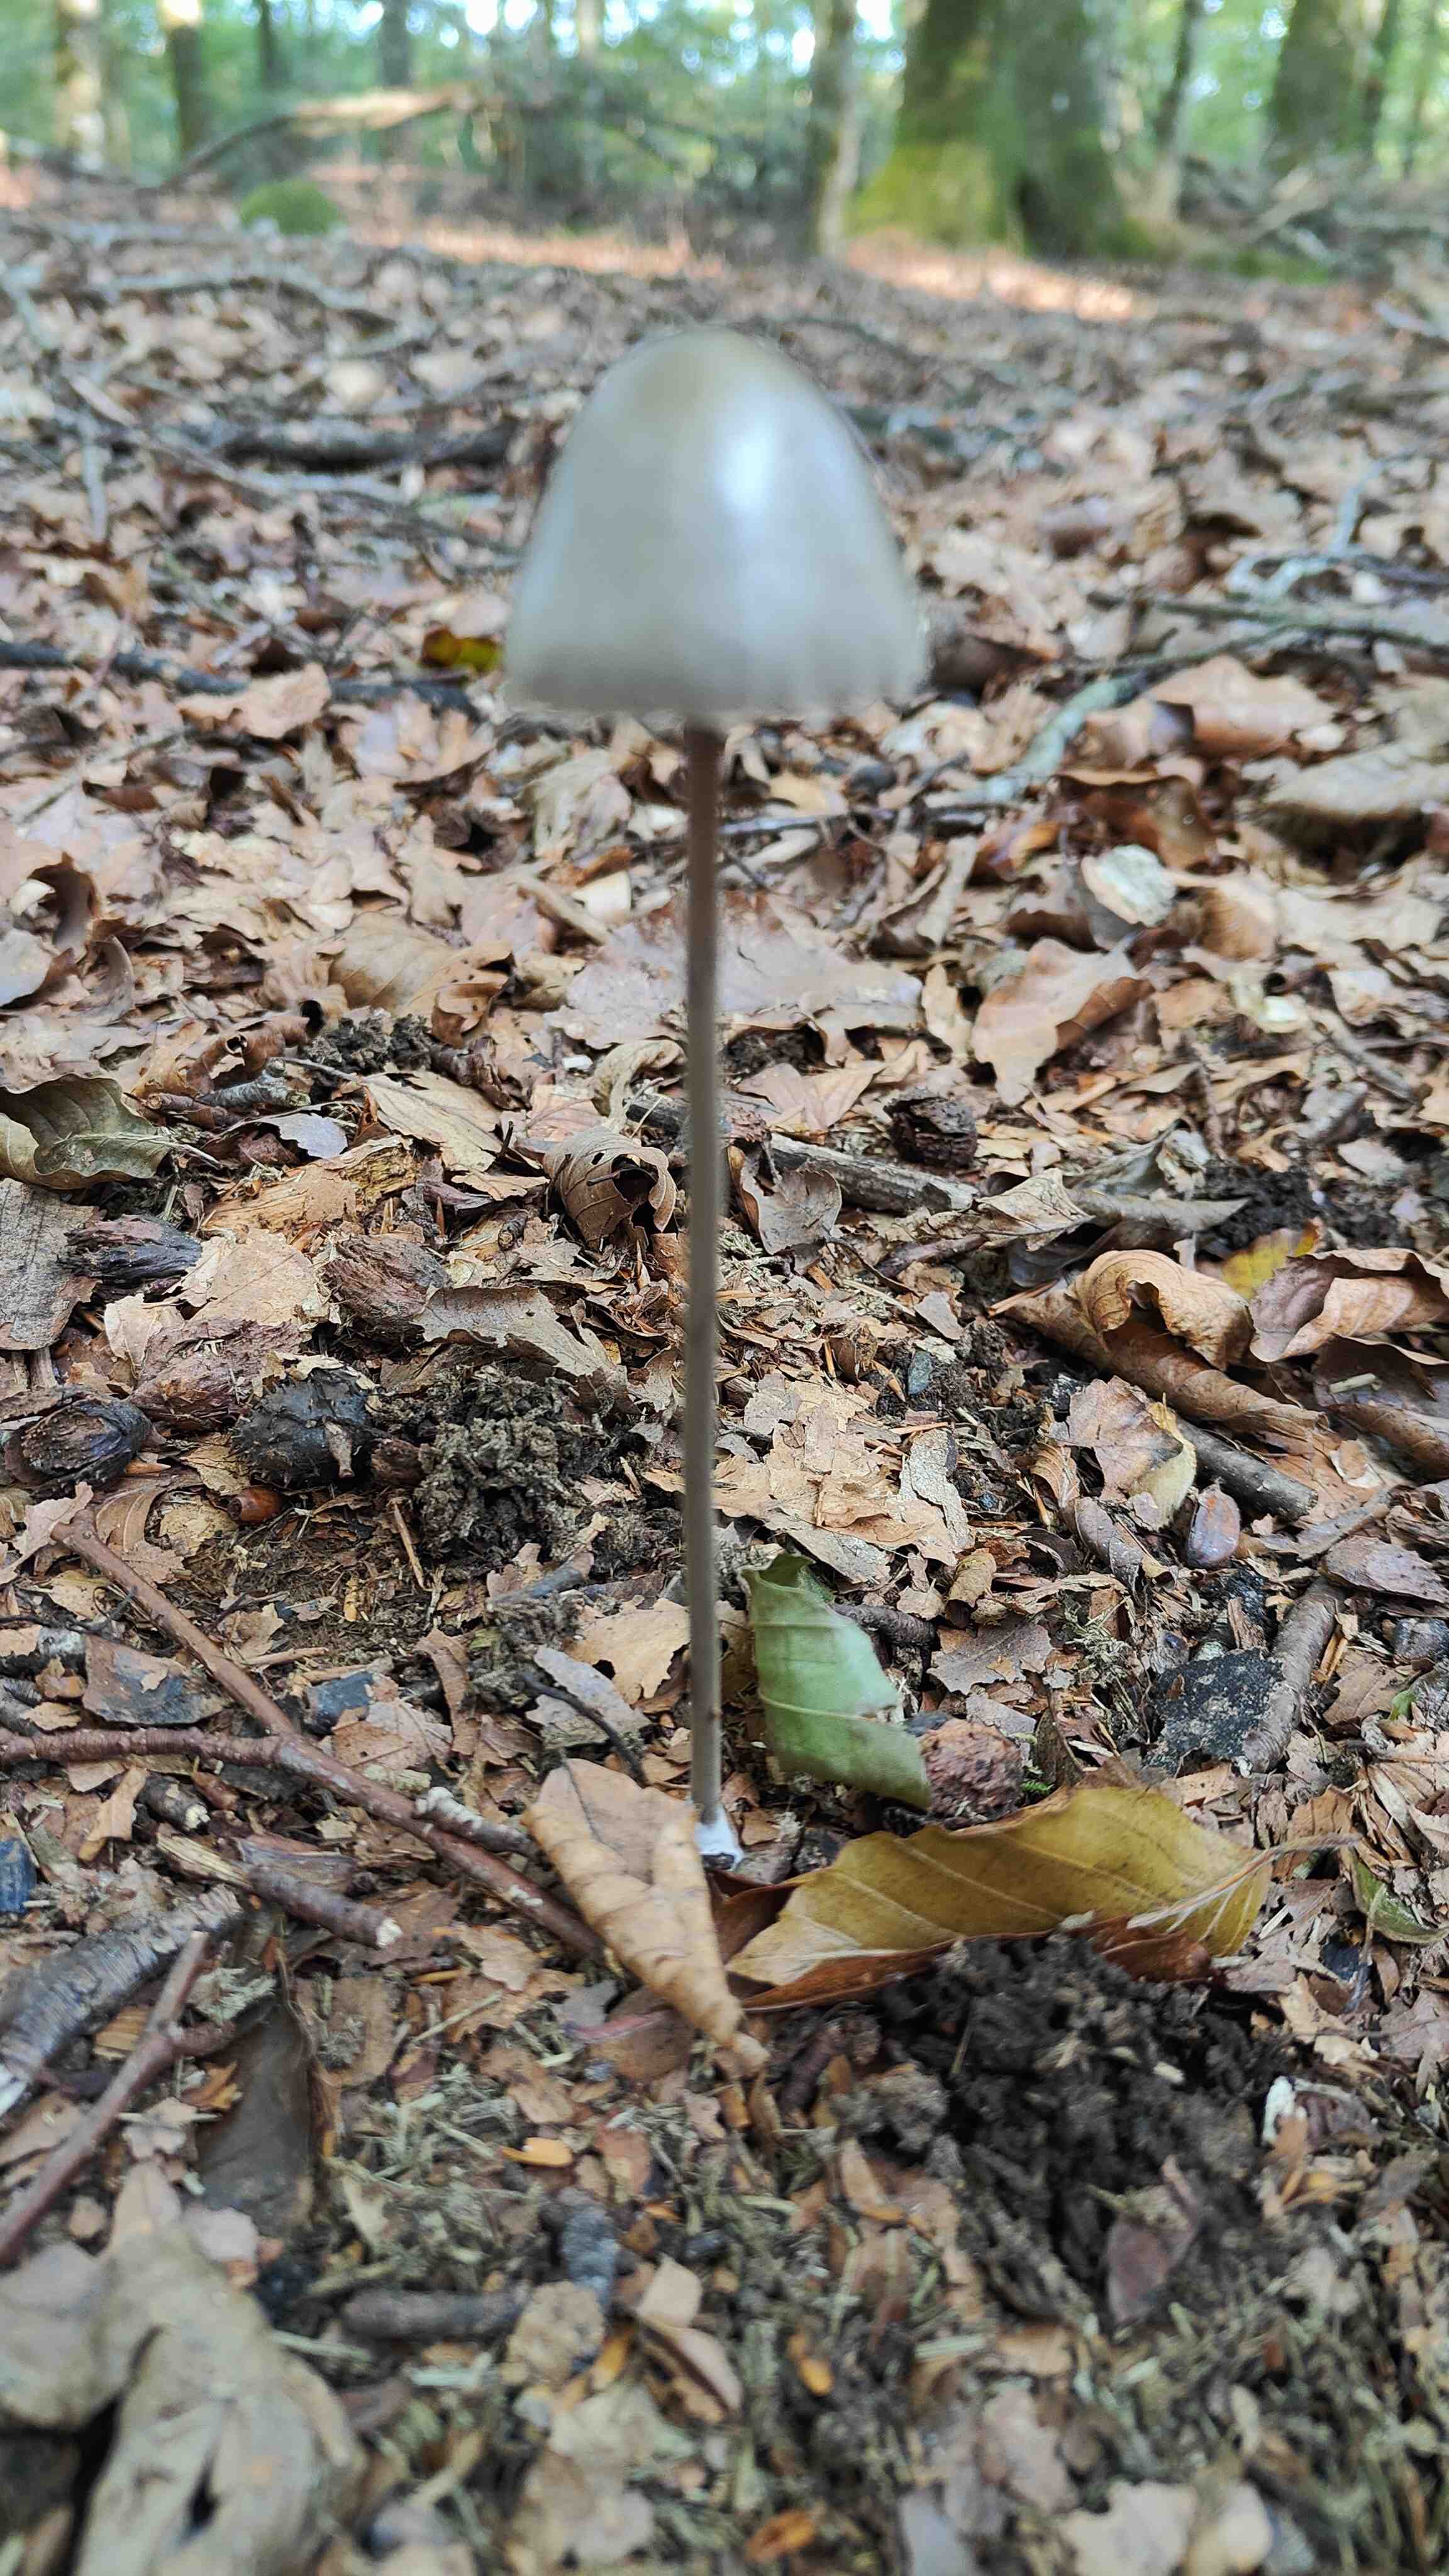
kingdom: Fungi
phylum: Basidiomycota
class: Agaricomycetes
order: Agaricales
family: Bolbitiaceae
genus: Panaeolus
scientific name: Panaeolus papilionaceus
